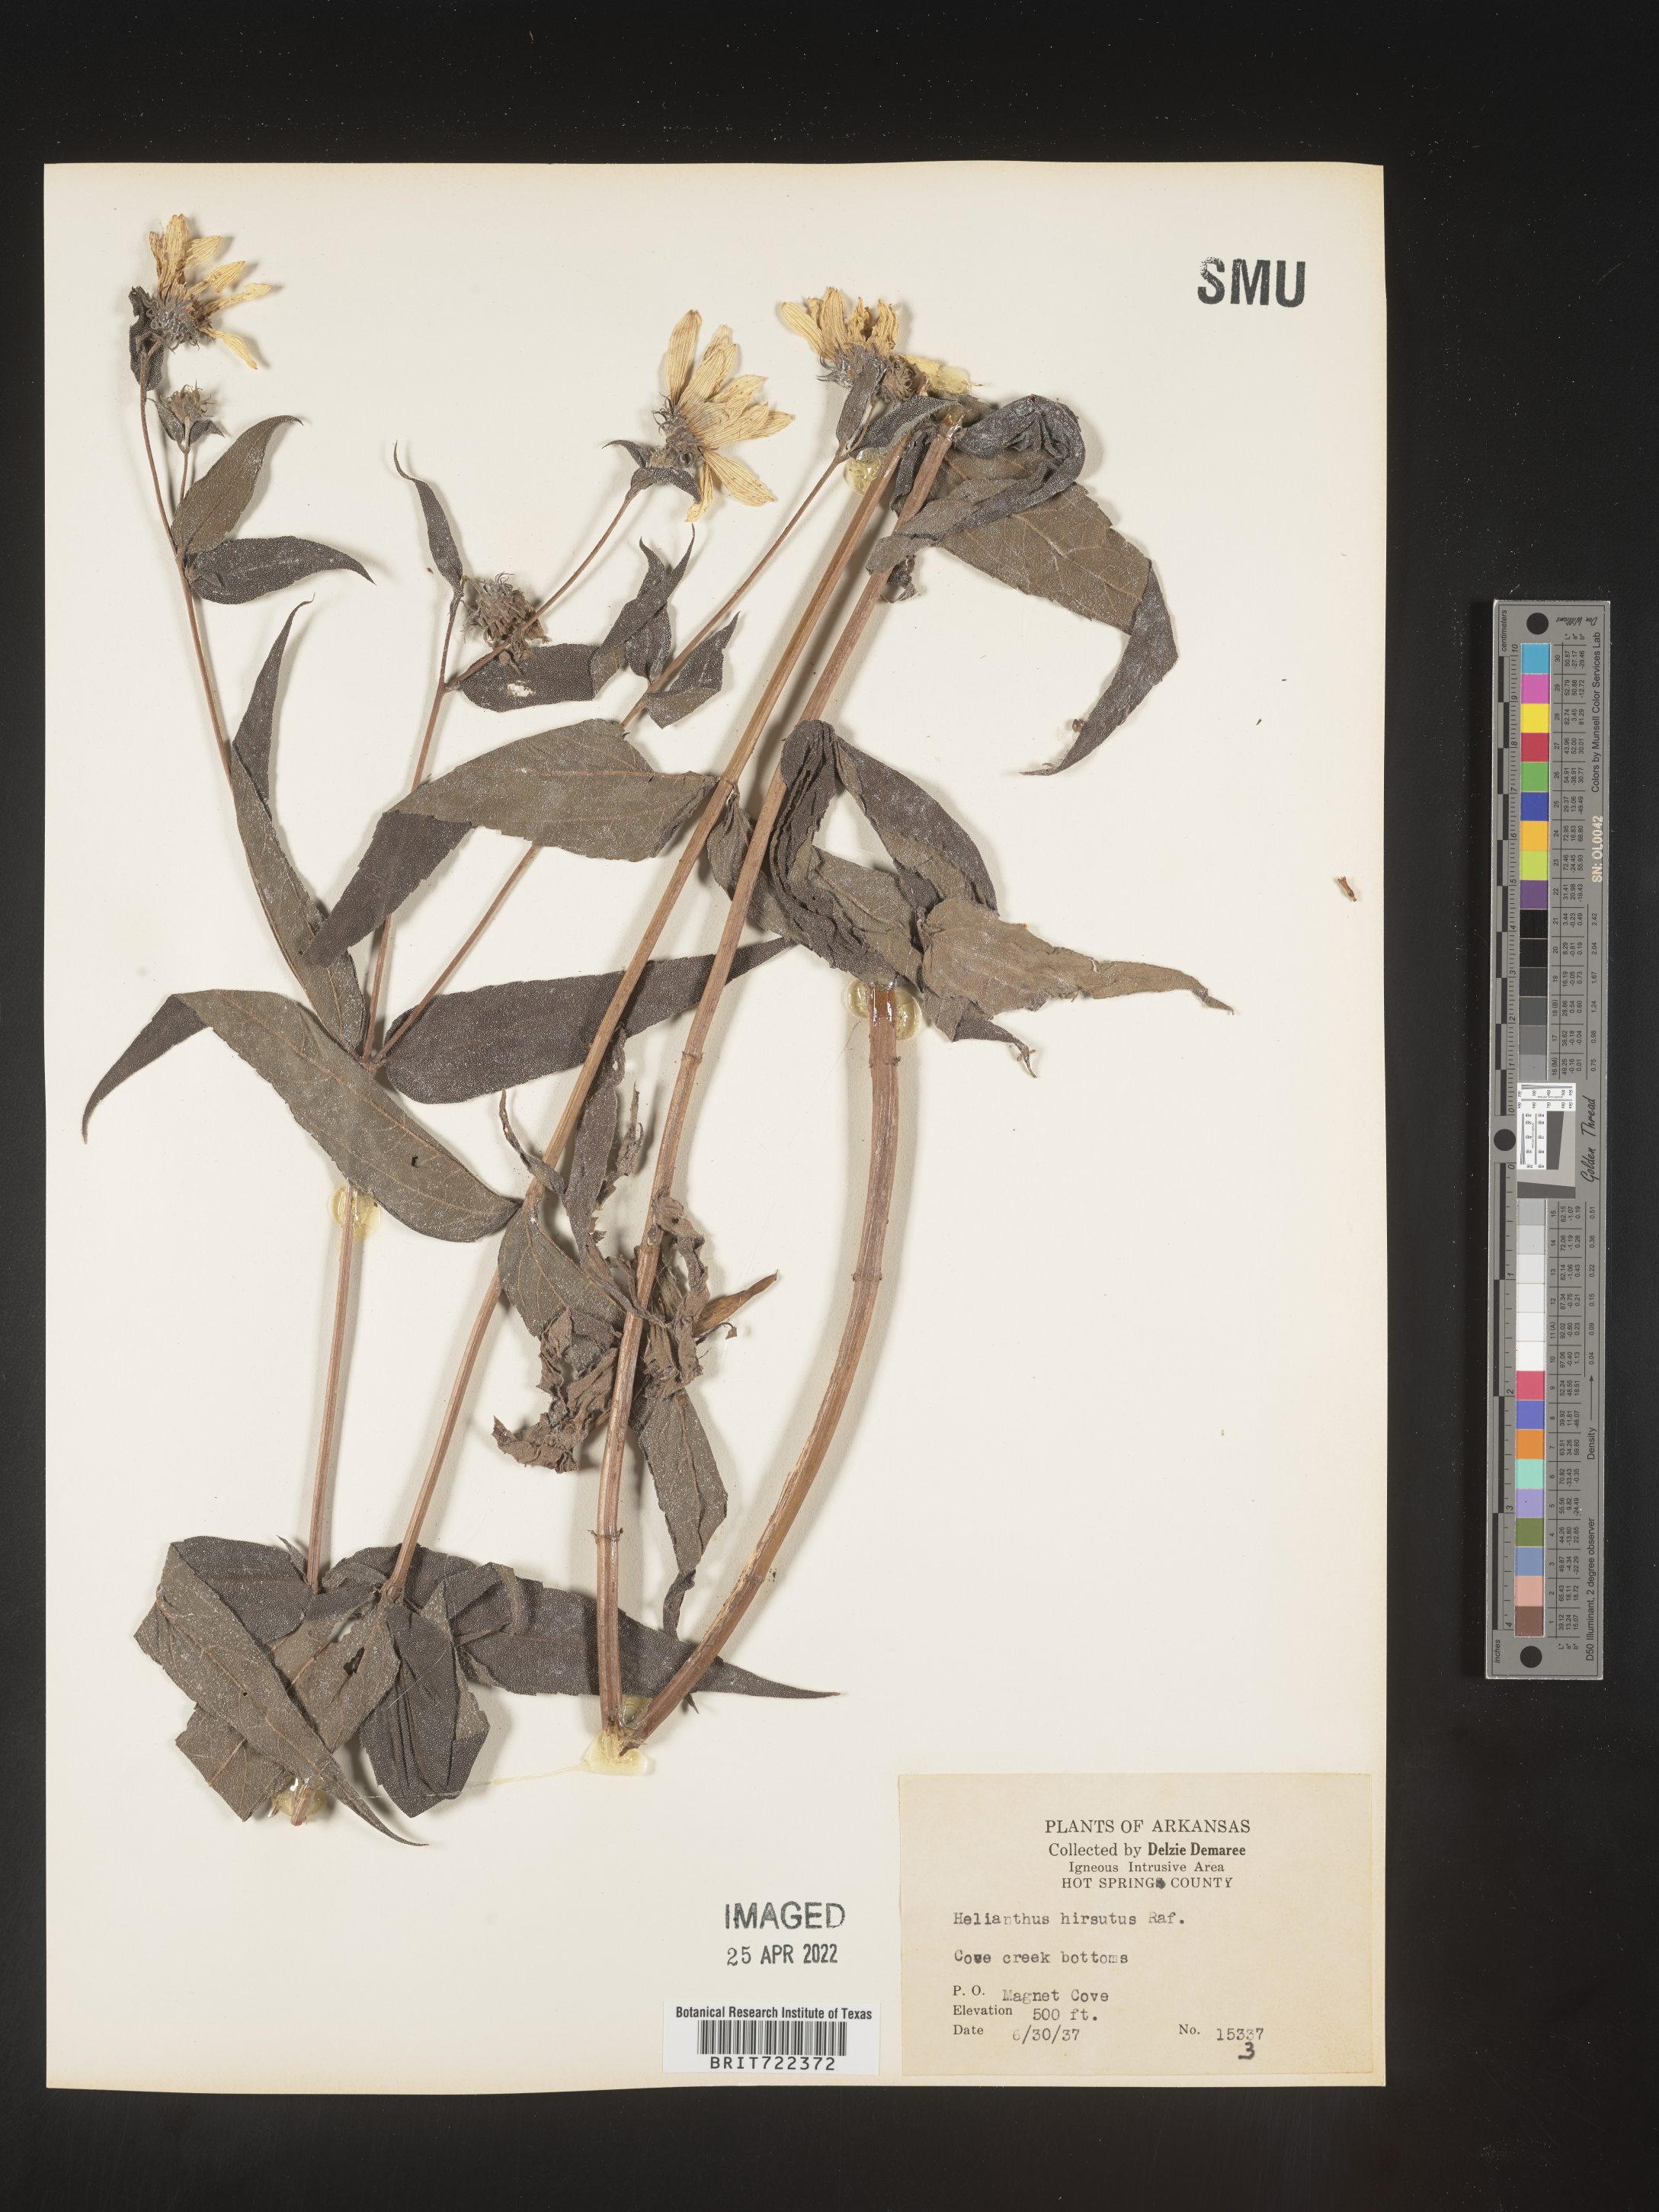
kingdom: Plantae
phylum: Tracheophyta
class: Magnoliopsida
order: Asterales
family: Asteraceae
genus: Helianthus
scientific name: Helianthus hirsutus
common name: Hairy sunflower
